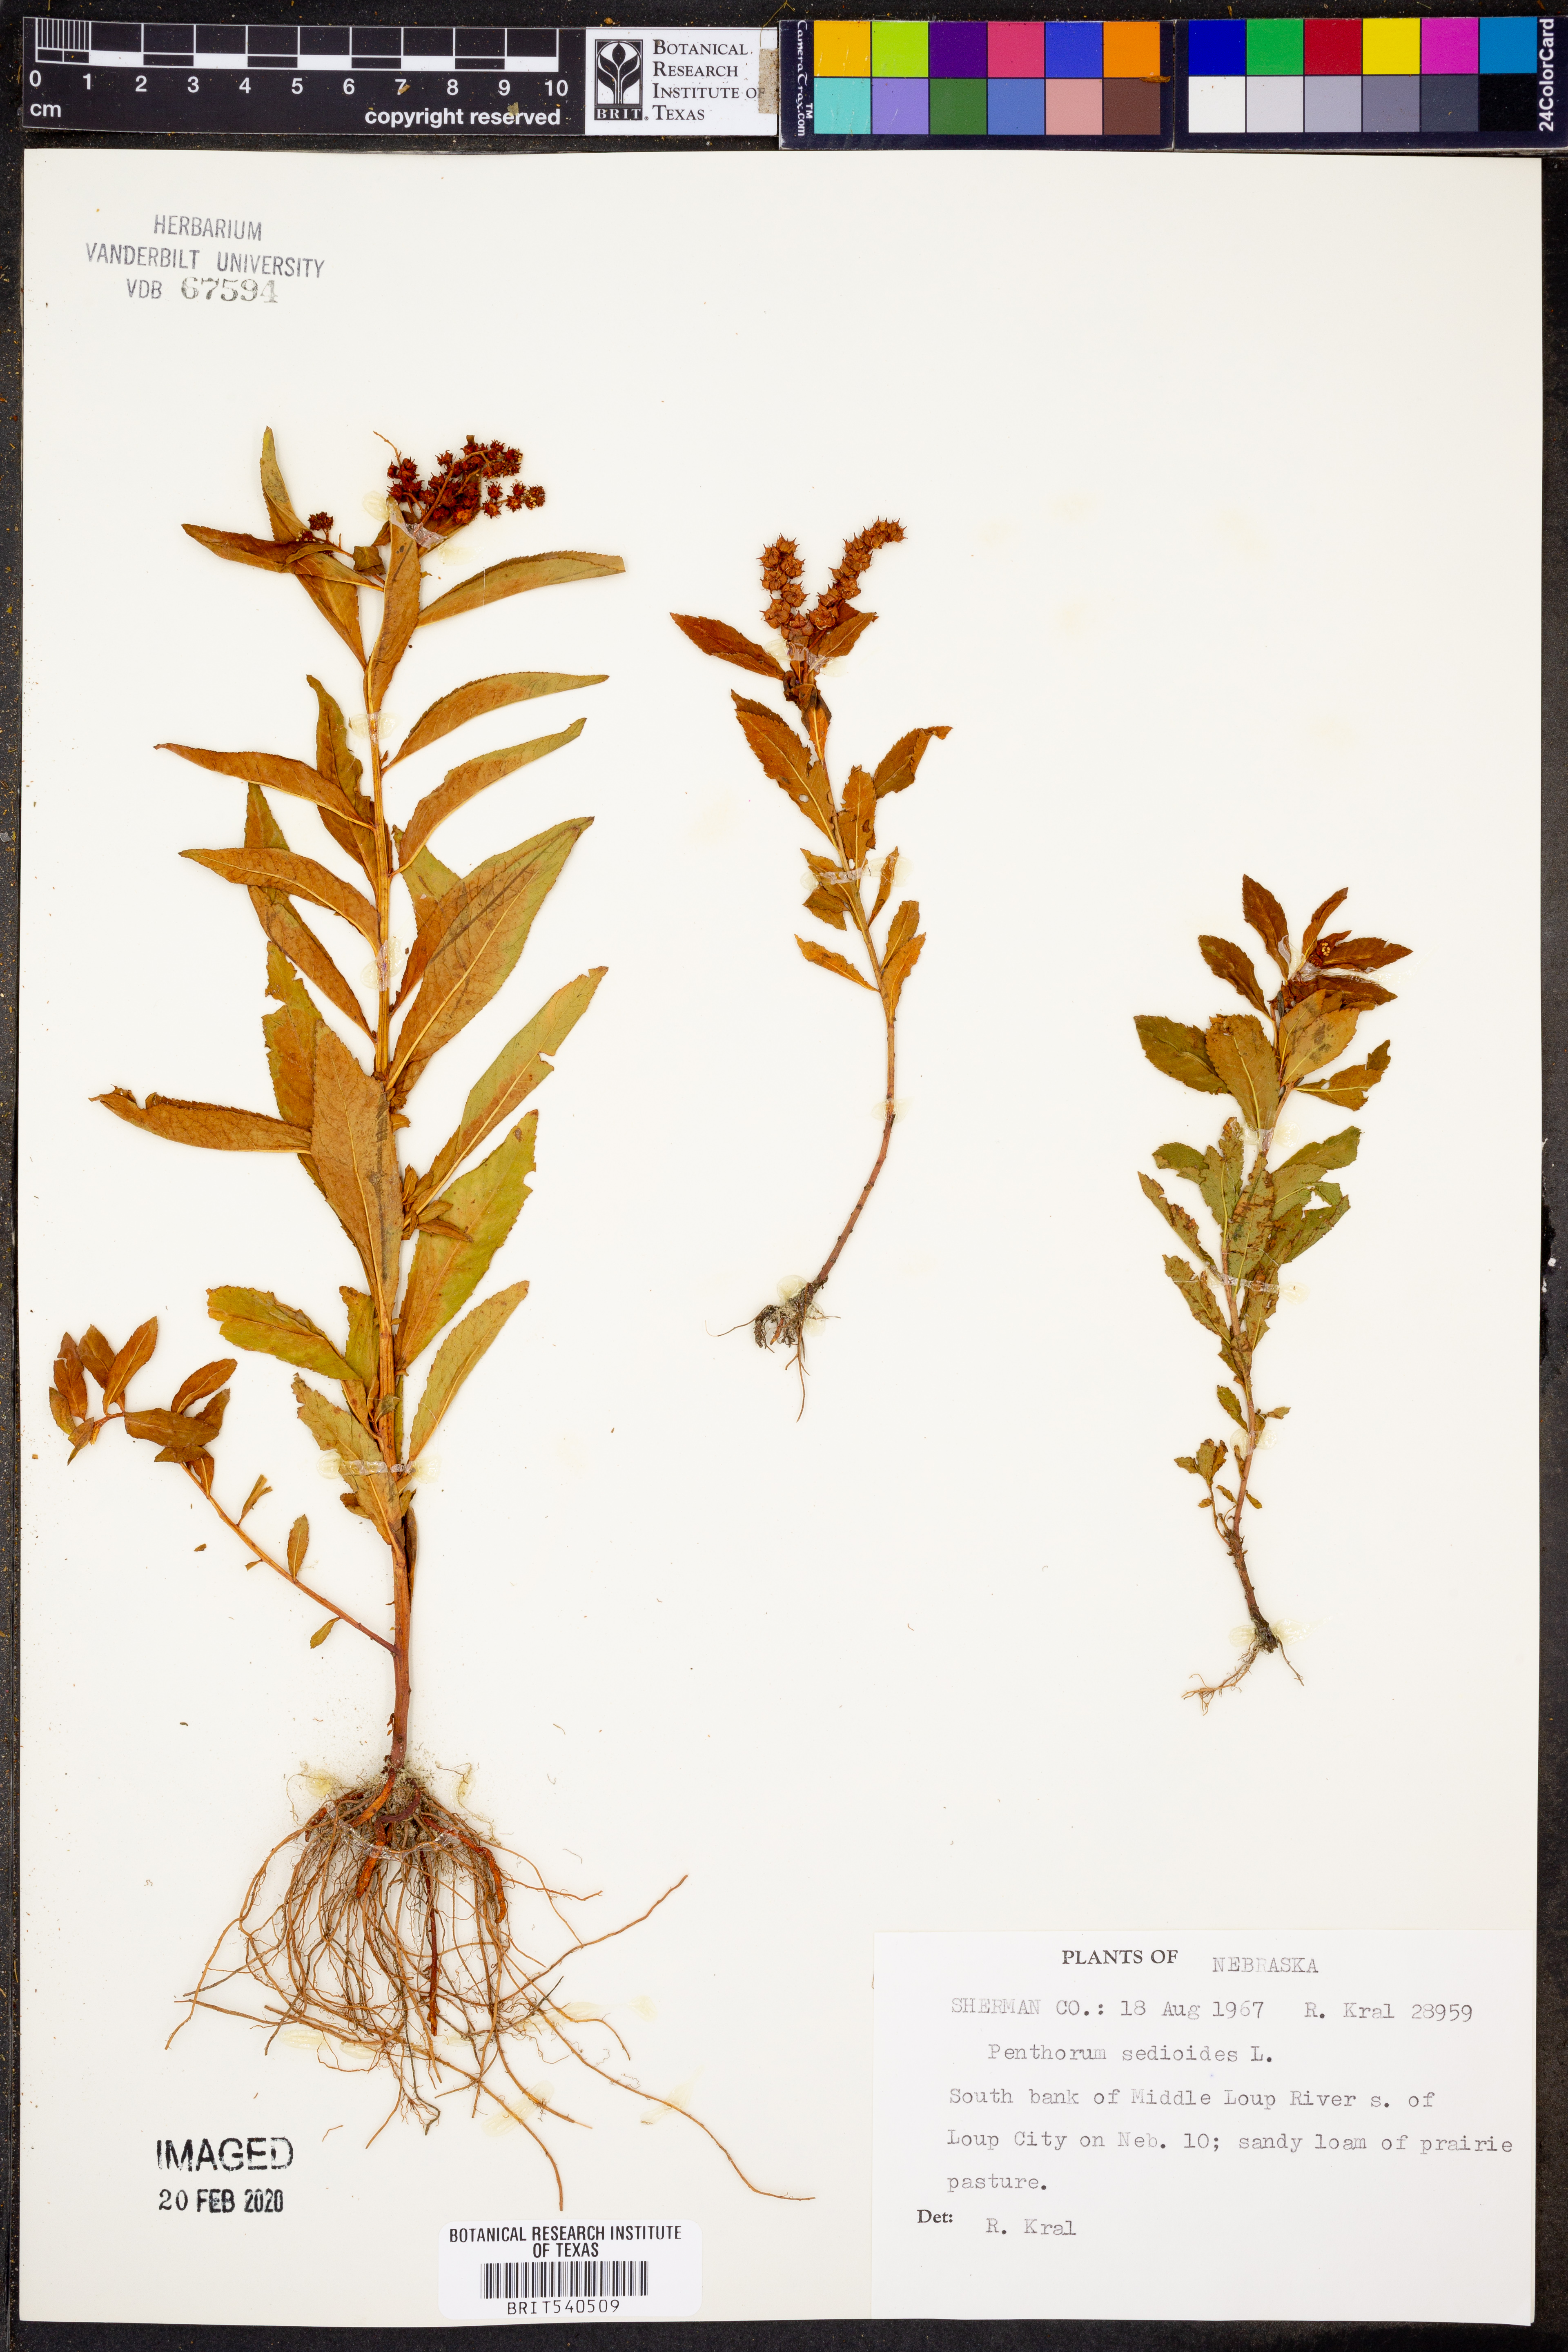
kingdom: Plantae
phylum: Tracheophyta
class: Magnoliopsida
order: Saxifragales
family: Penthoraceae
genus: Penthorum
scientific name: Penthorum sedoides
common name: Ditch stonecrop
